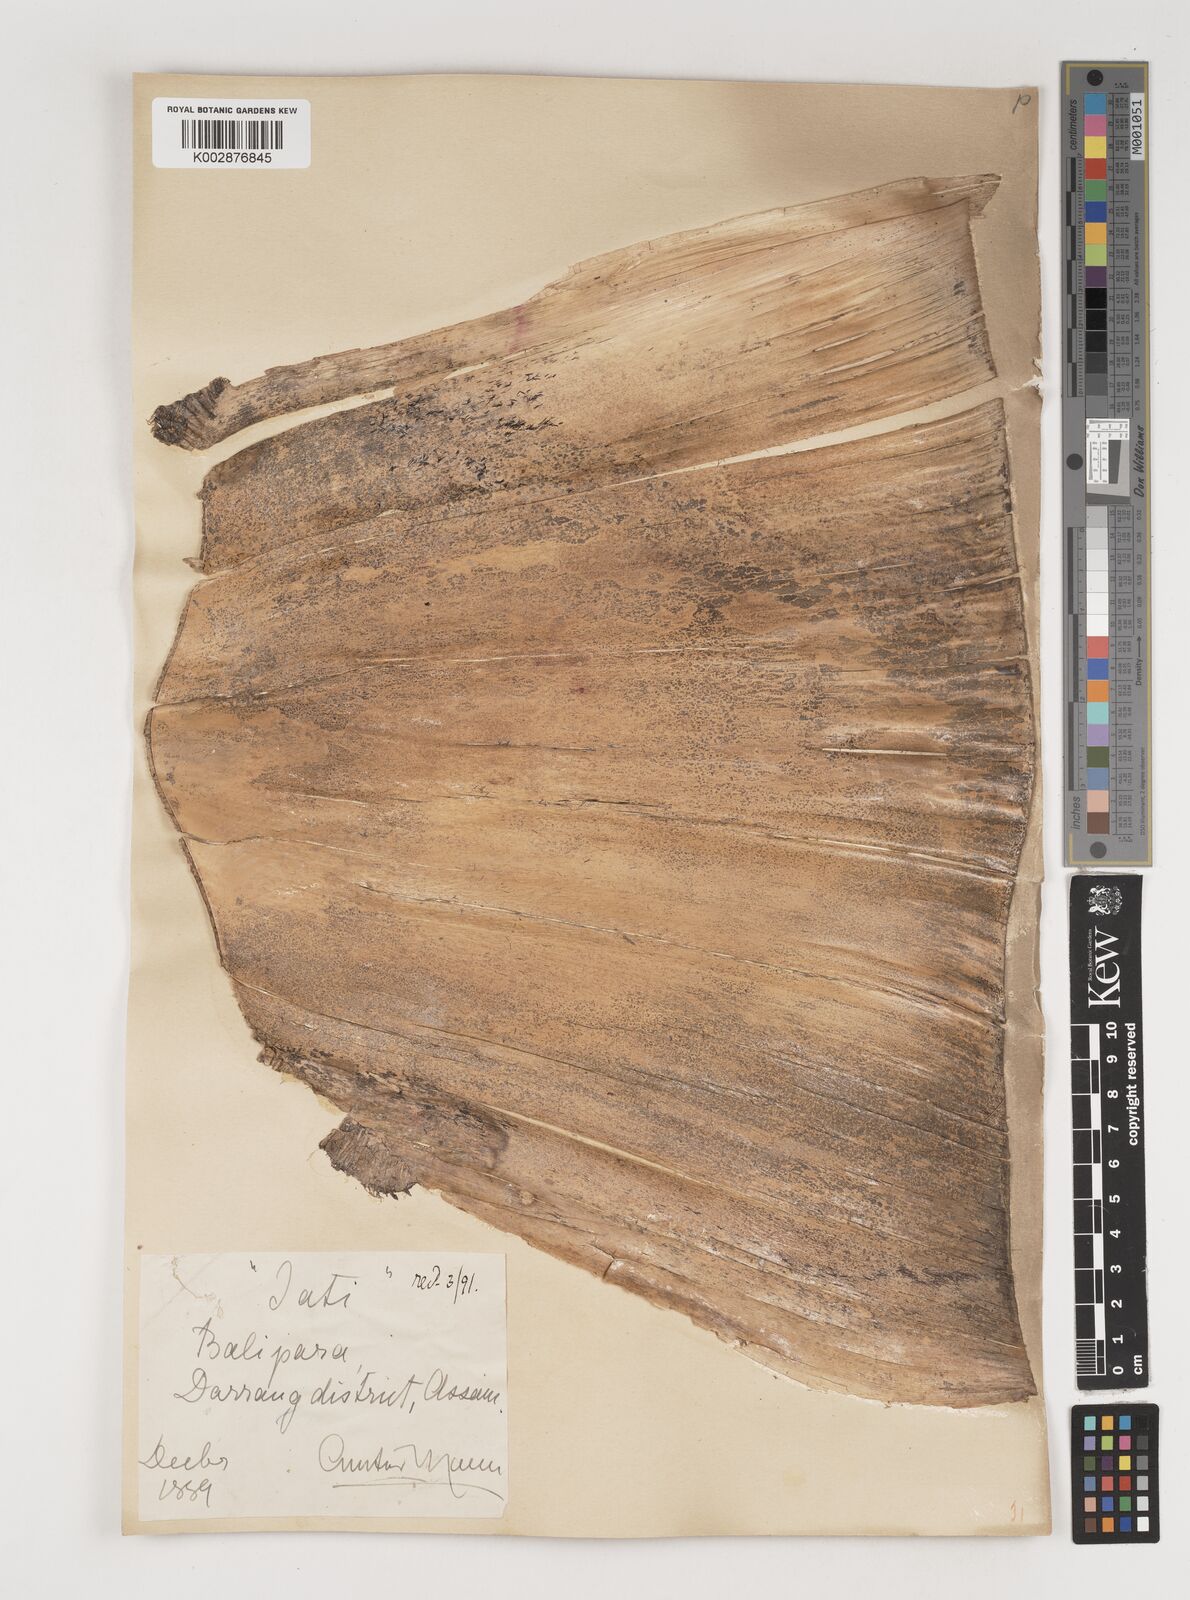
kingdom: Plantae
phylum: Tracheophyta
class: Liliopsida
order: Poales
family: Poaceae
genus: Bambusa
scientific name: Bambusa tulda
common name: Bengal bamboo
